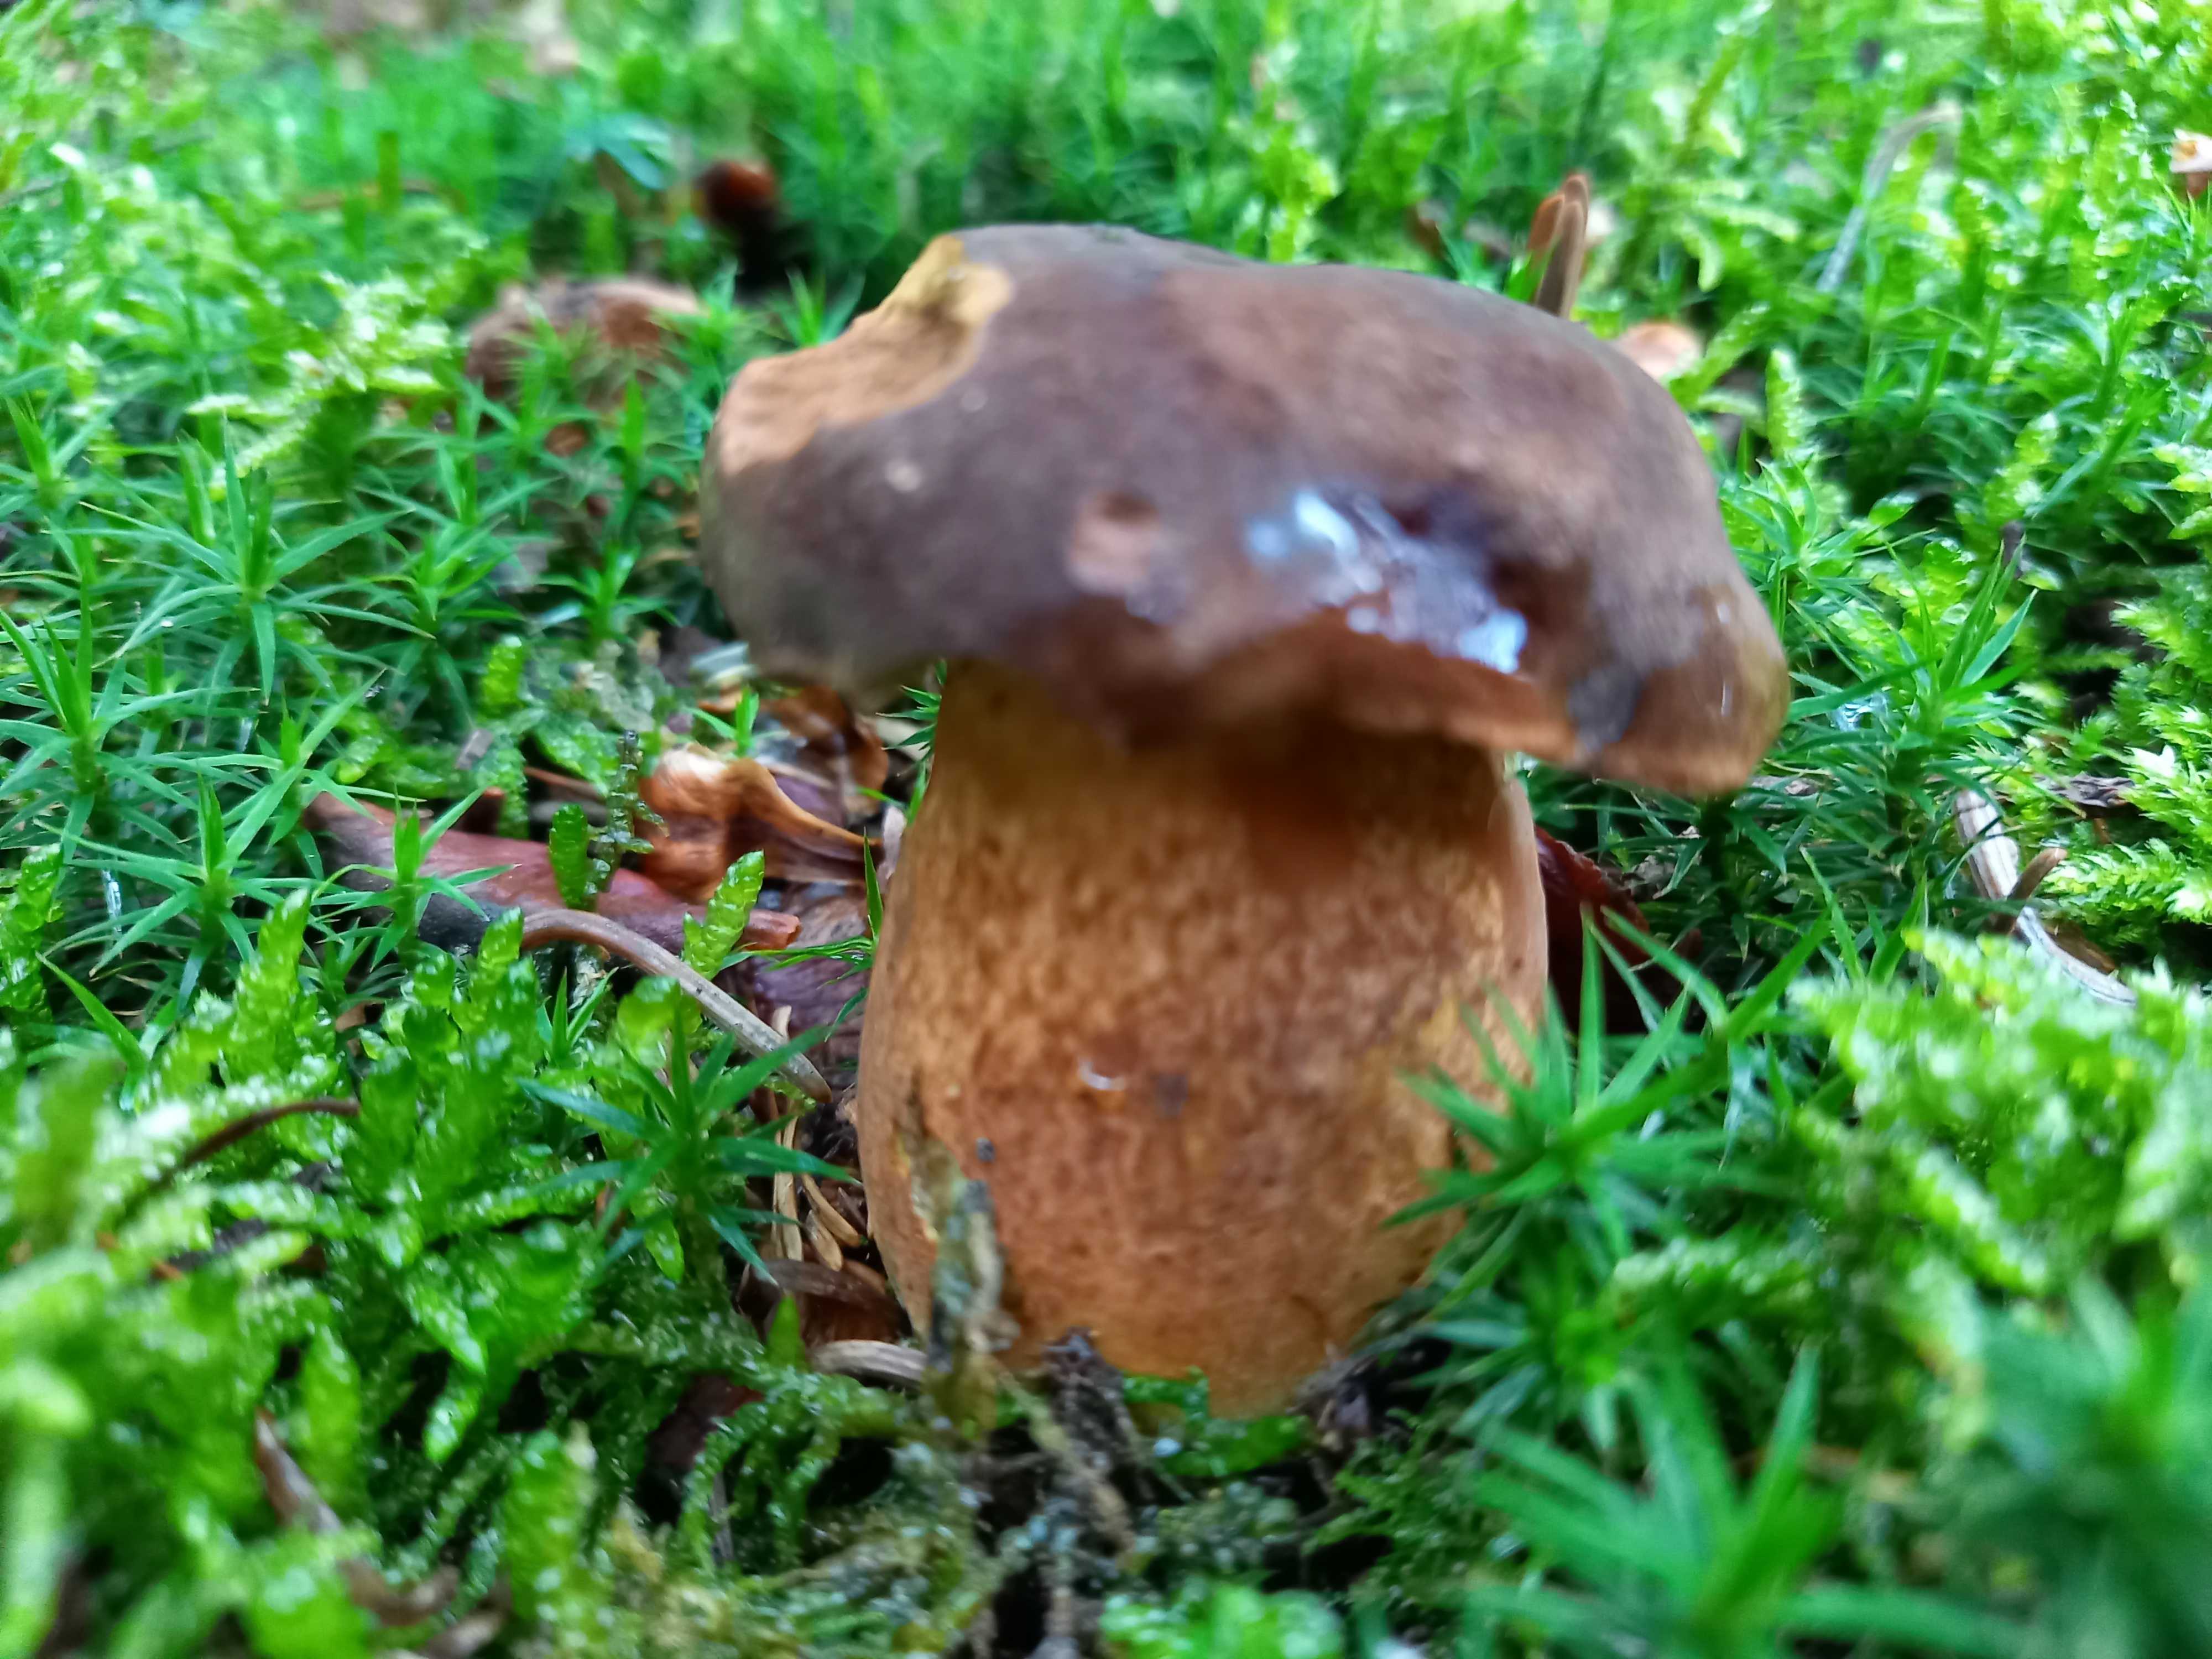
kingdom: Fungi
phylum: Basidiomycota
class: Agaricomycetes
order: Boletales
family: Boletaceae
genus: Imleria
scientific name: Imleria badia
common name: brunstokket rørhat
